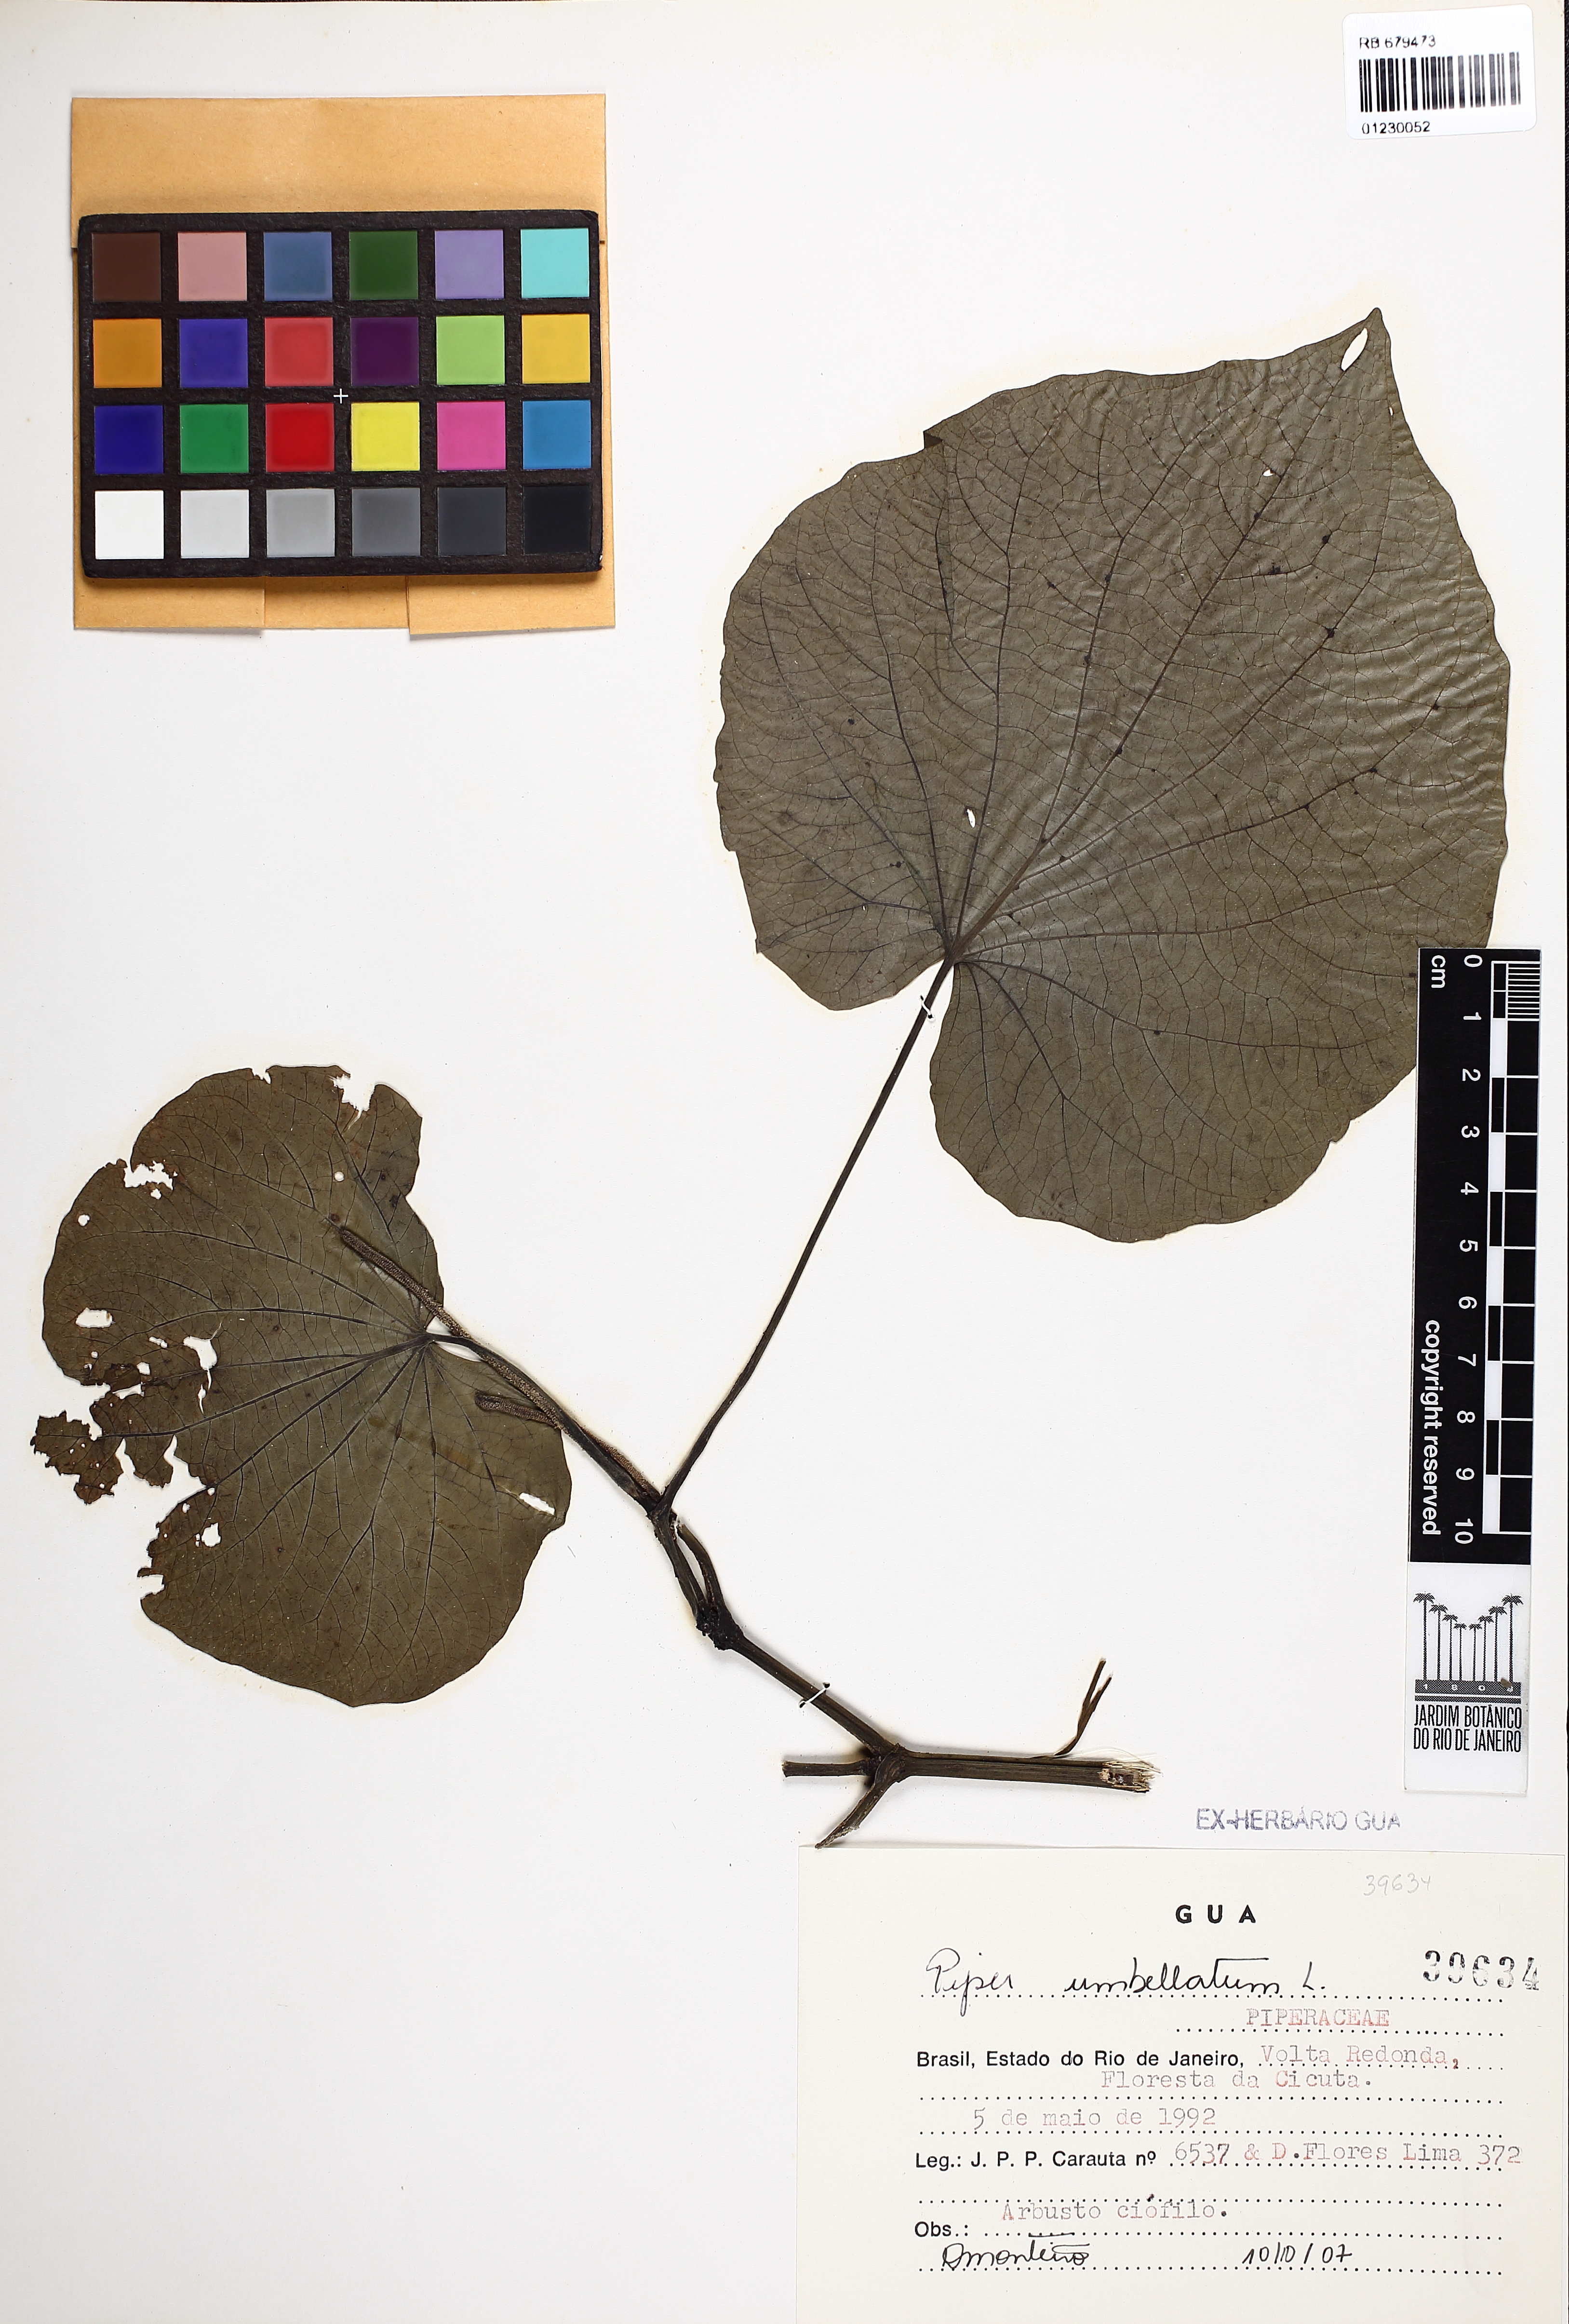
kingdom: Plantae
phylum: Tracheophyta
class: Magnoliopsida
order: Piperales
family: Piperaceae
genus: Piper
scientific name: Piper umbellatum
